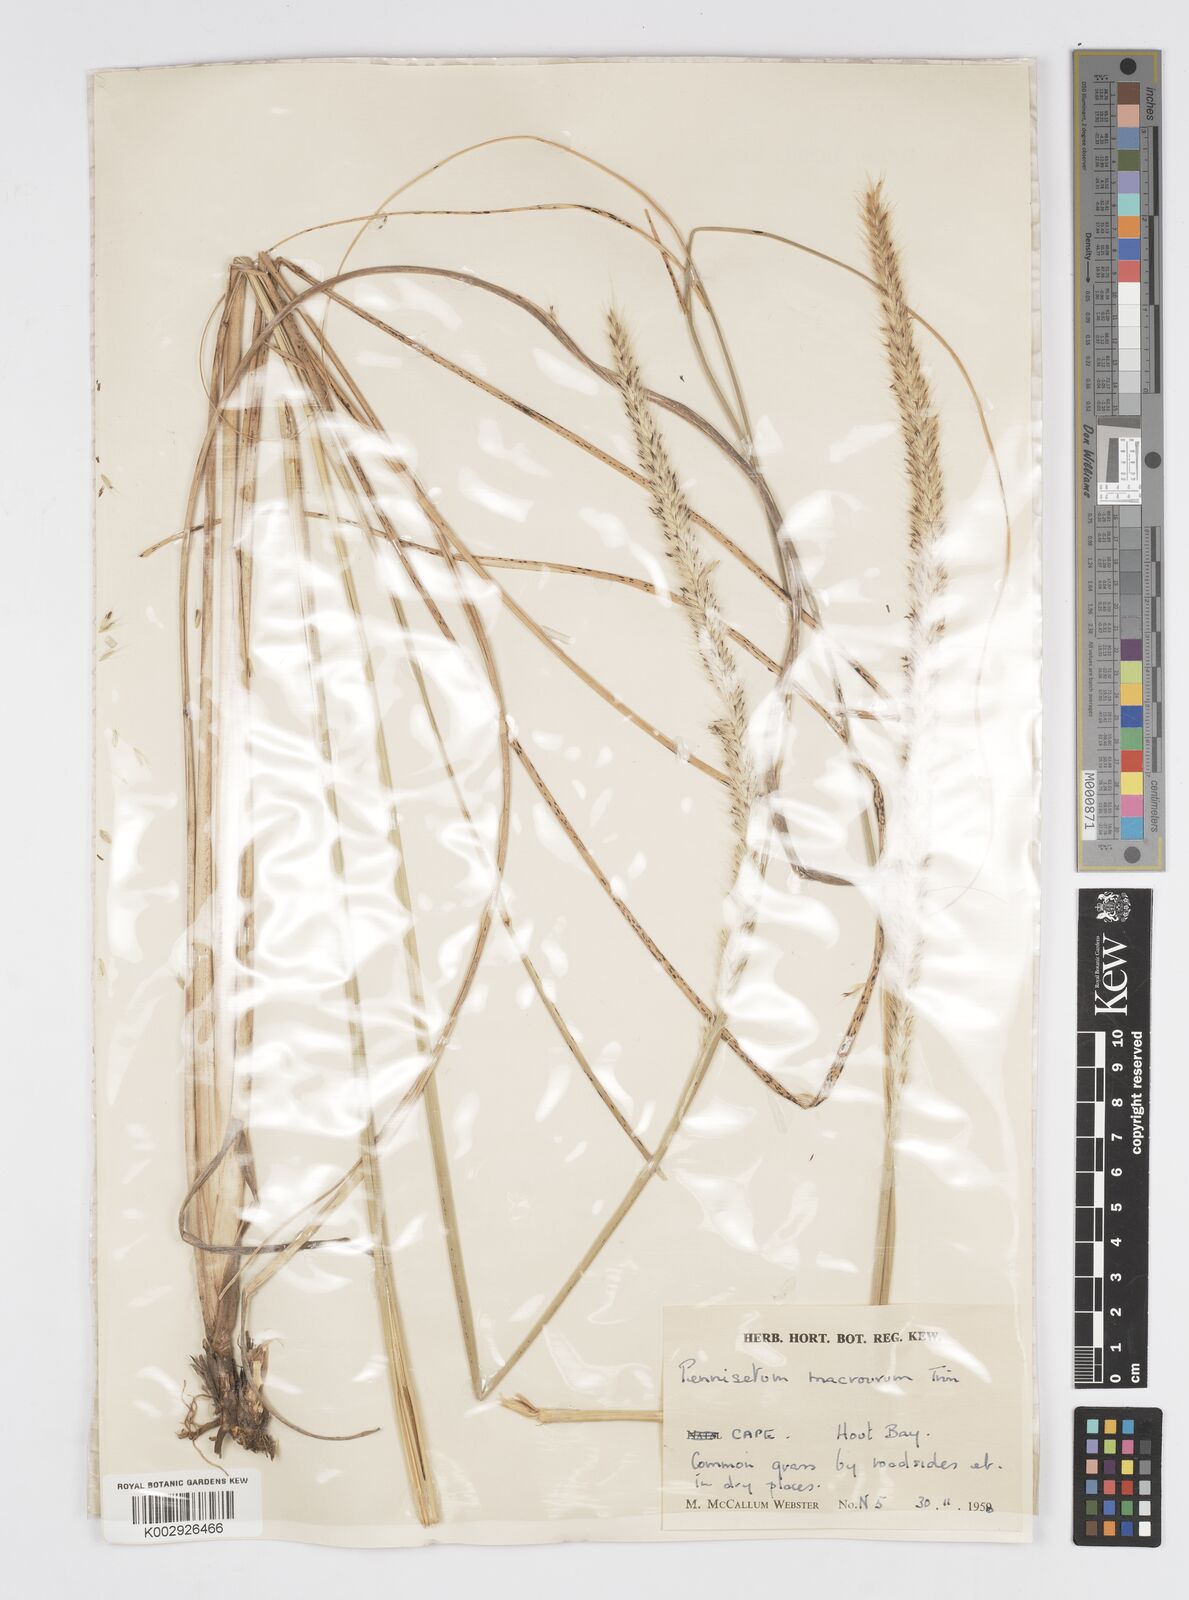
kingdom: Plantae
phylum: Tracheophyta
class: Liliopsida
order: Poales
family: Poaceae
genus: Cenchrus
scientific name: Cenchrus caudatus
